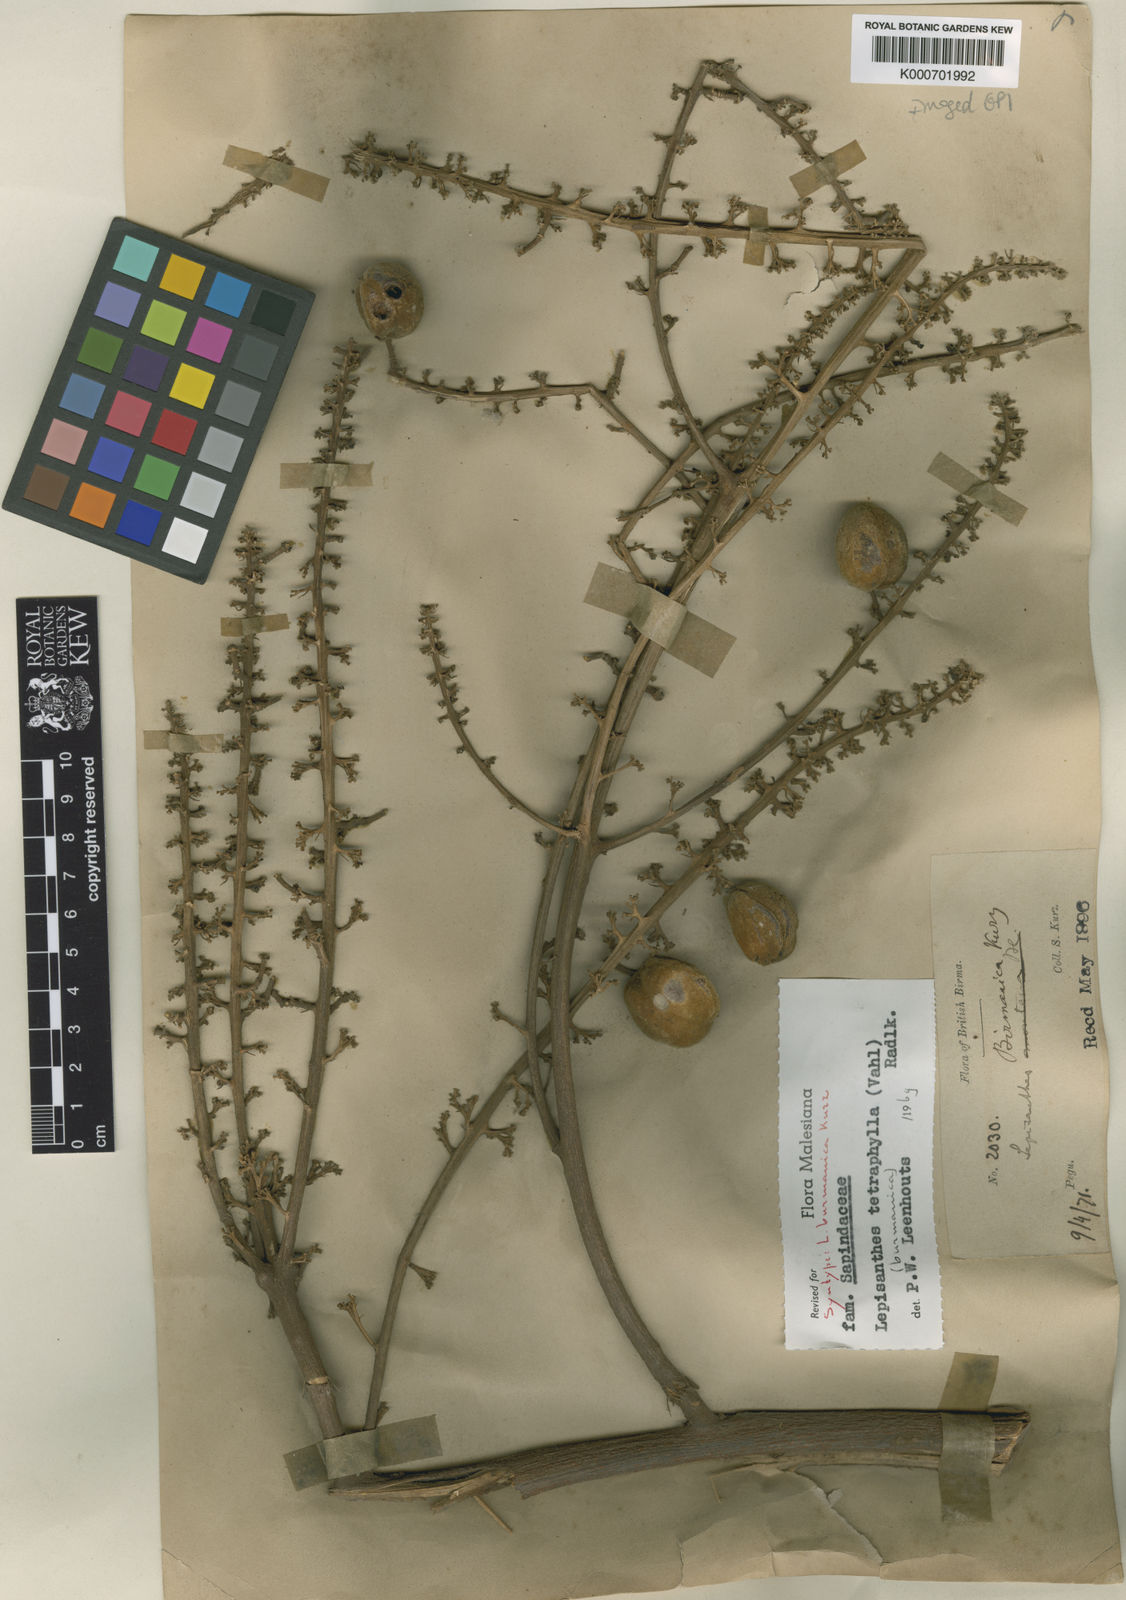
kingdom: Plantae
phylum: Tracheophyta
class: Magnoliopsida
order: Sapindales
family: Sapindaceae
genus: Lepisanthes
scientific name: Lepisanthes tetraphylla
